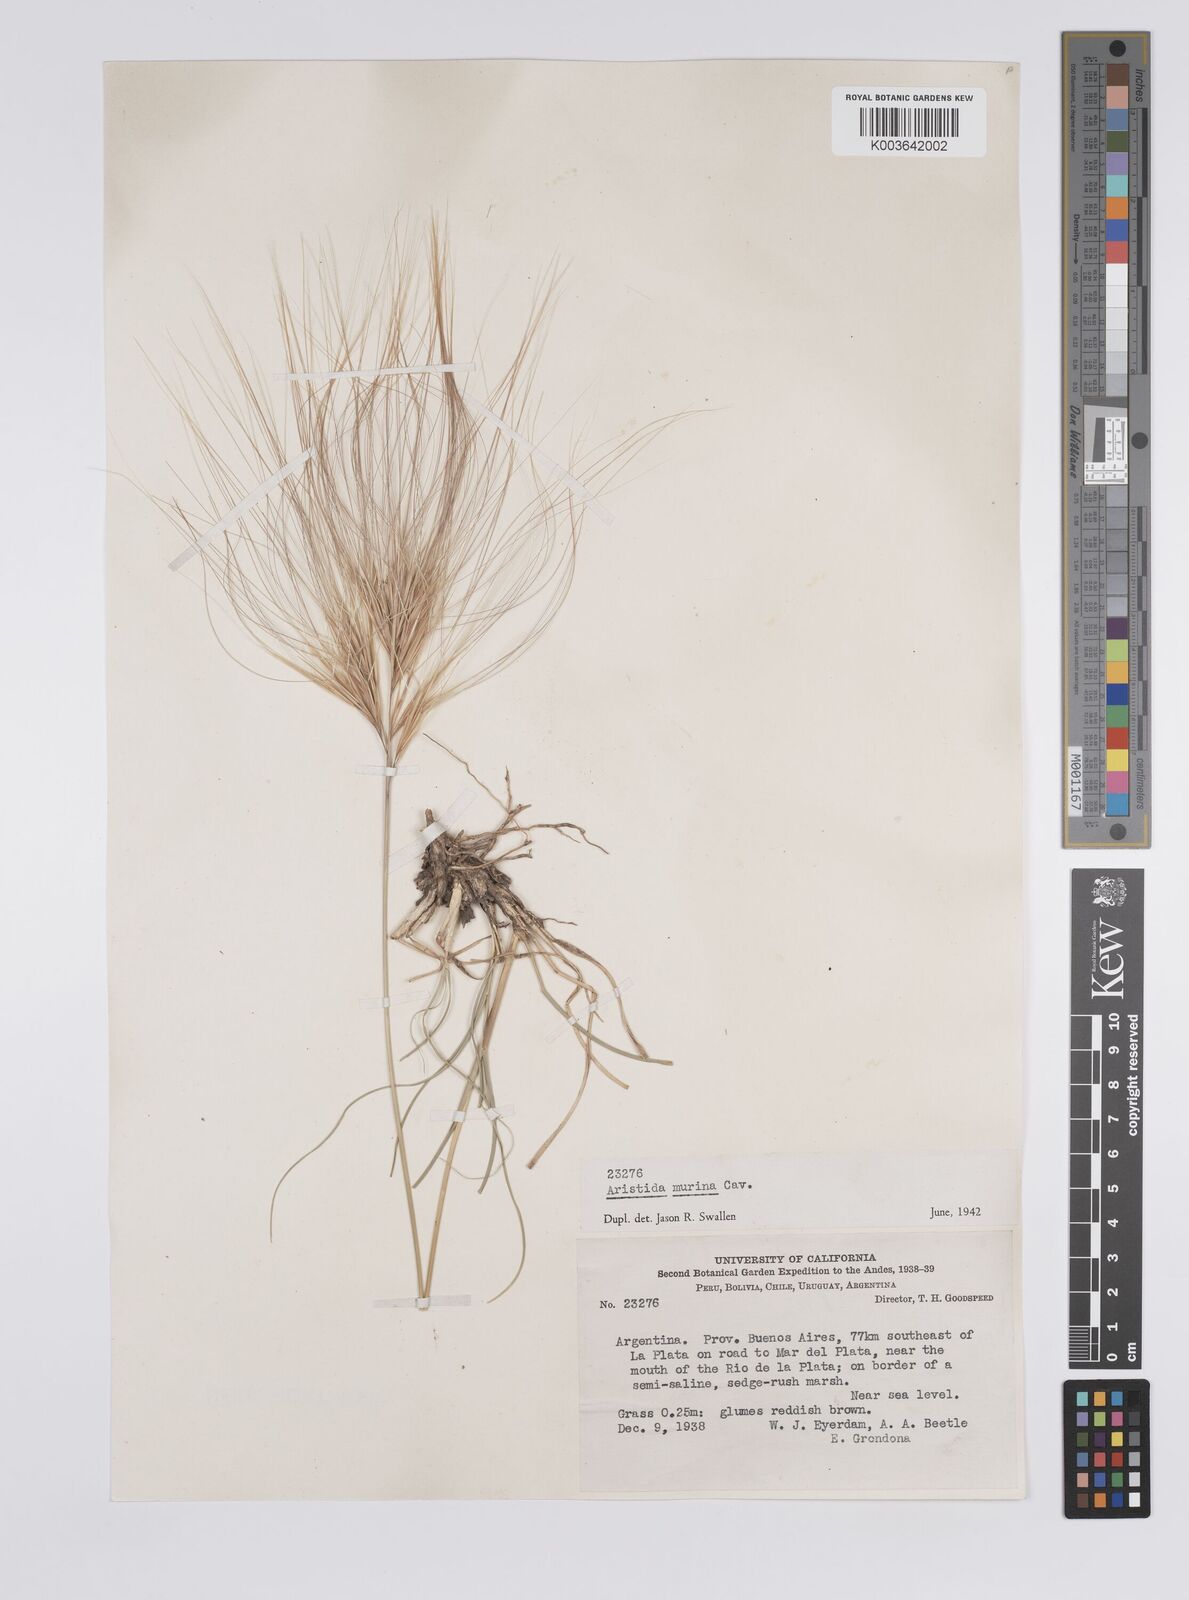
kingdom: Plantae
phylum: Tracheophyta
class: Liliopsida
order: Poales
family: Poaceae
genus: Aristida
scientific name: Aristida murina
